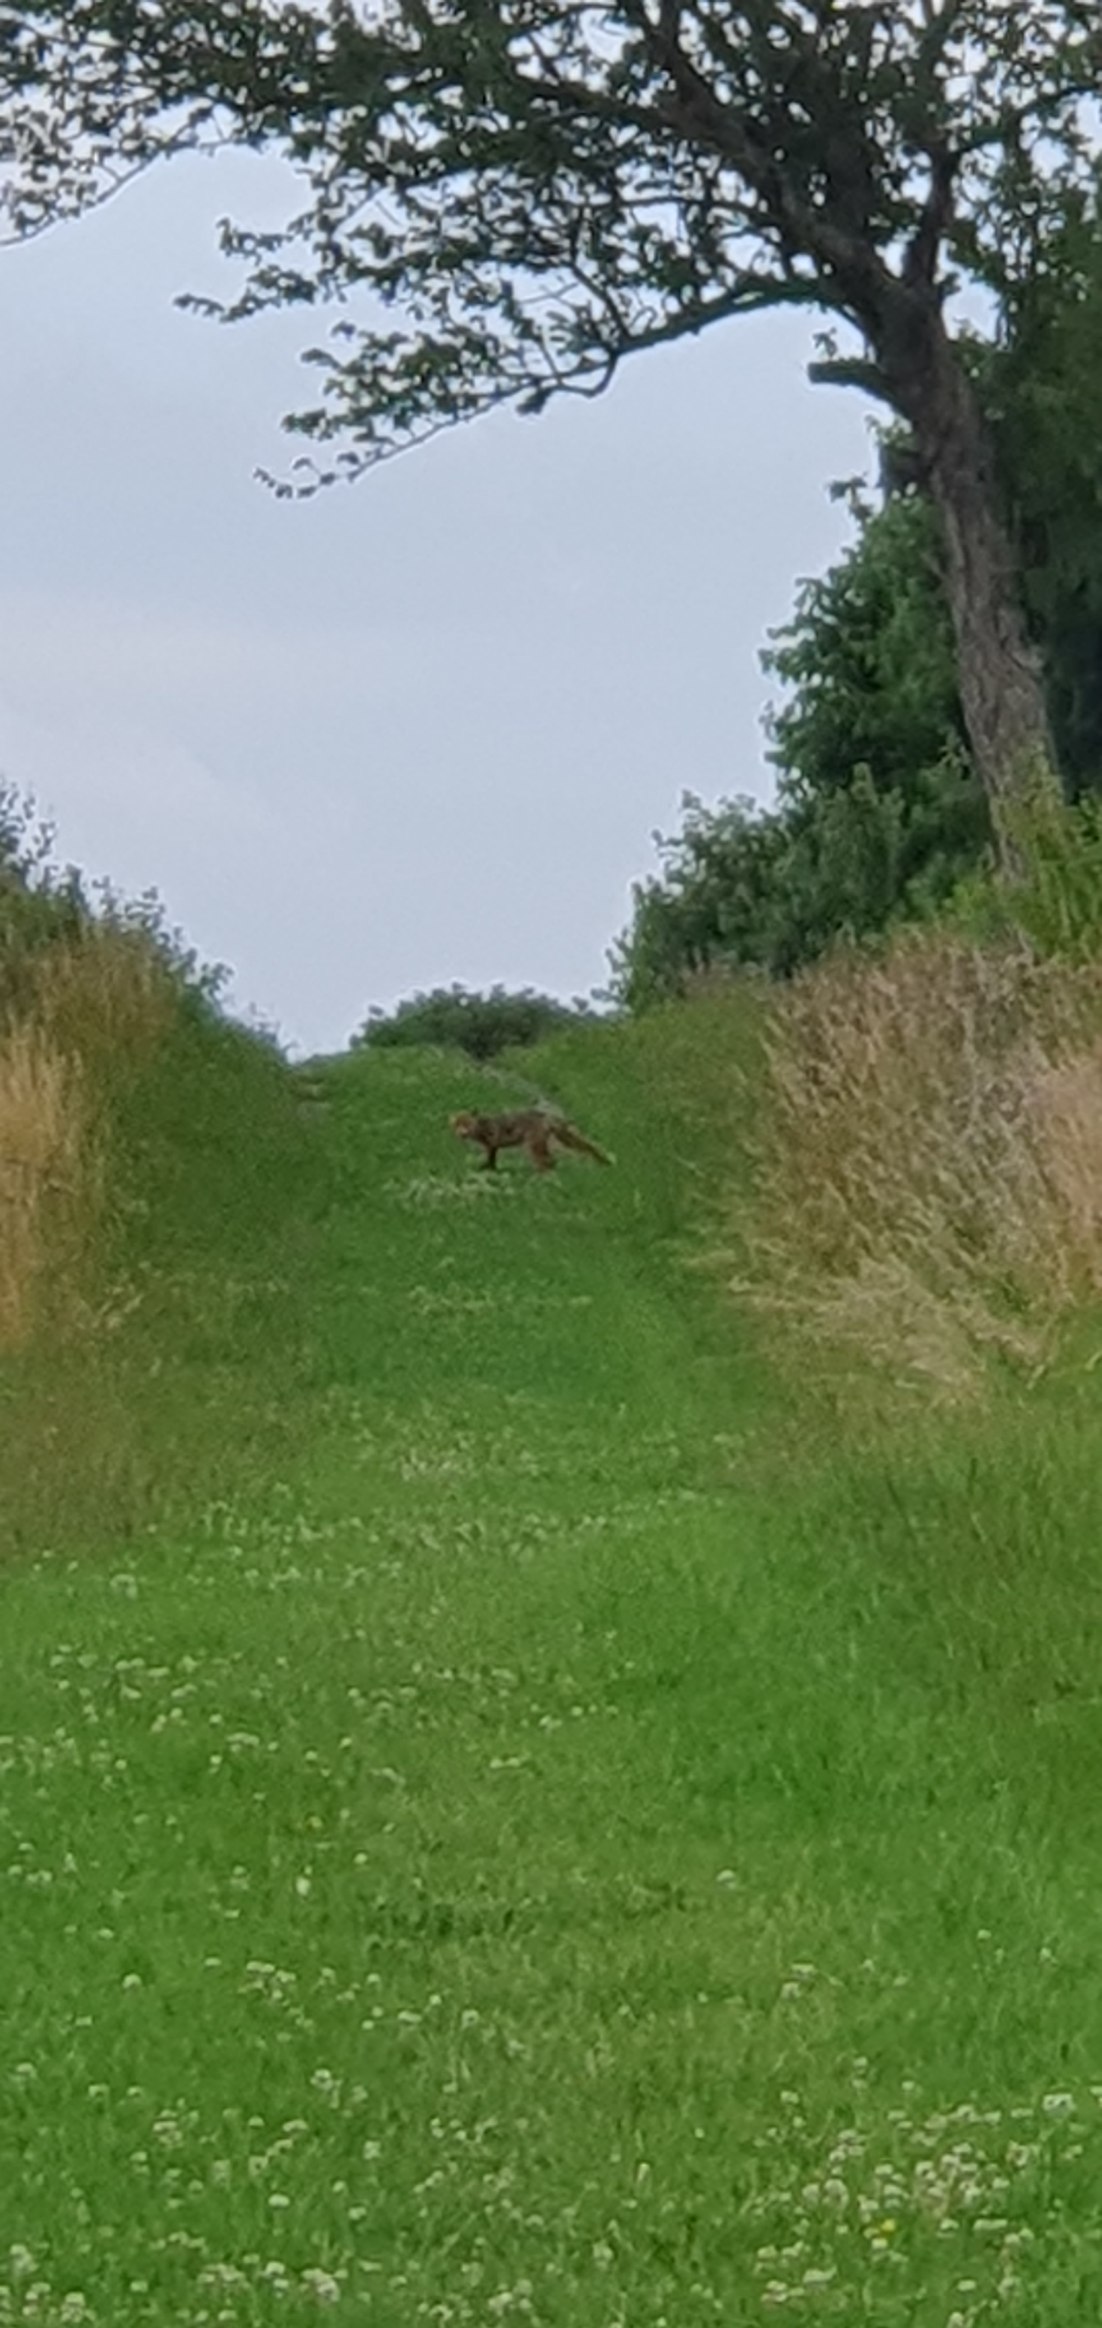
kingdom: Animalia
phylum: Chordata
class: Mammalia
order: Carnivora
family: Canidae
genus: Vulpes
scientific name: Vulpes vulpes
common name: Ræv
